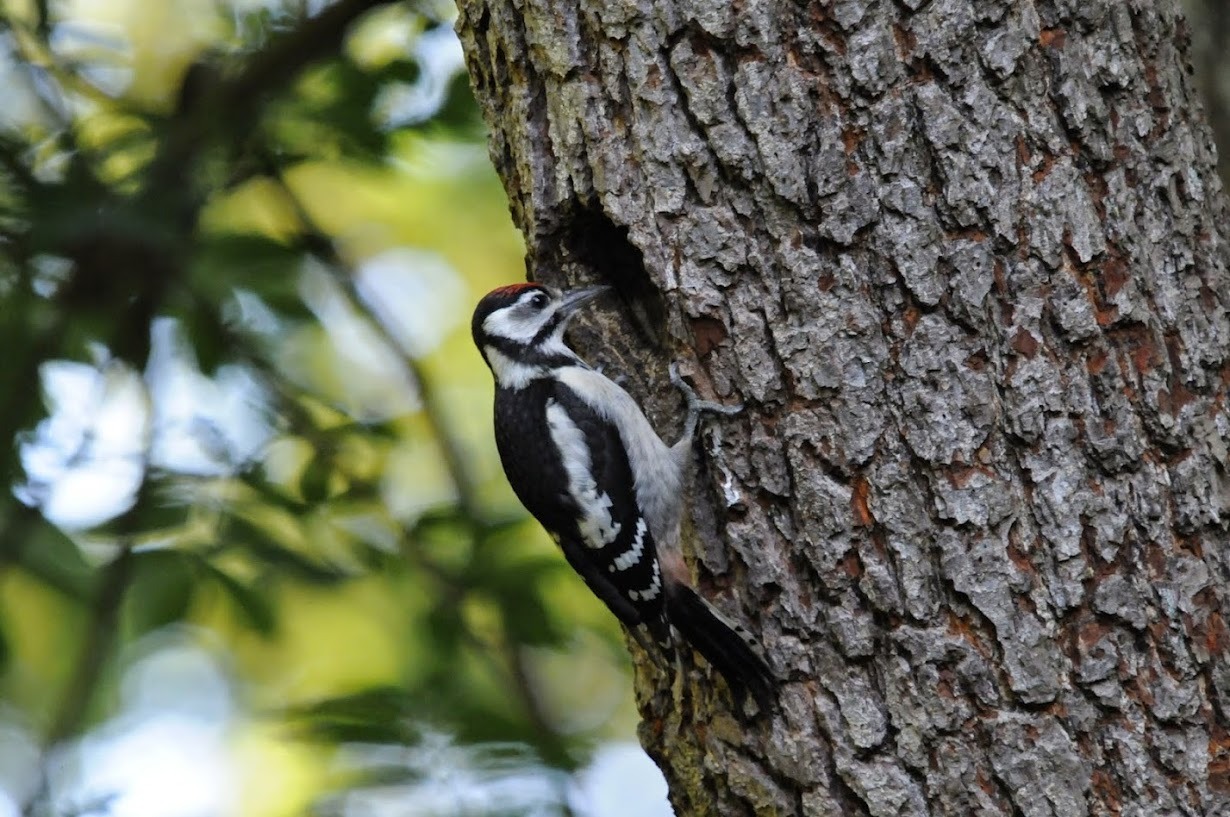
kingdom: Animalia
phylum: Chordata
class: Aves
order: Piciformes
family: Picidae
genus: Dendrocopos
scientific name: Dendrocopos major
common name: Stor flagspætte
